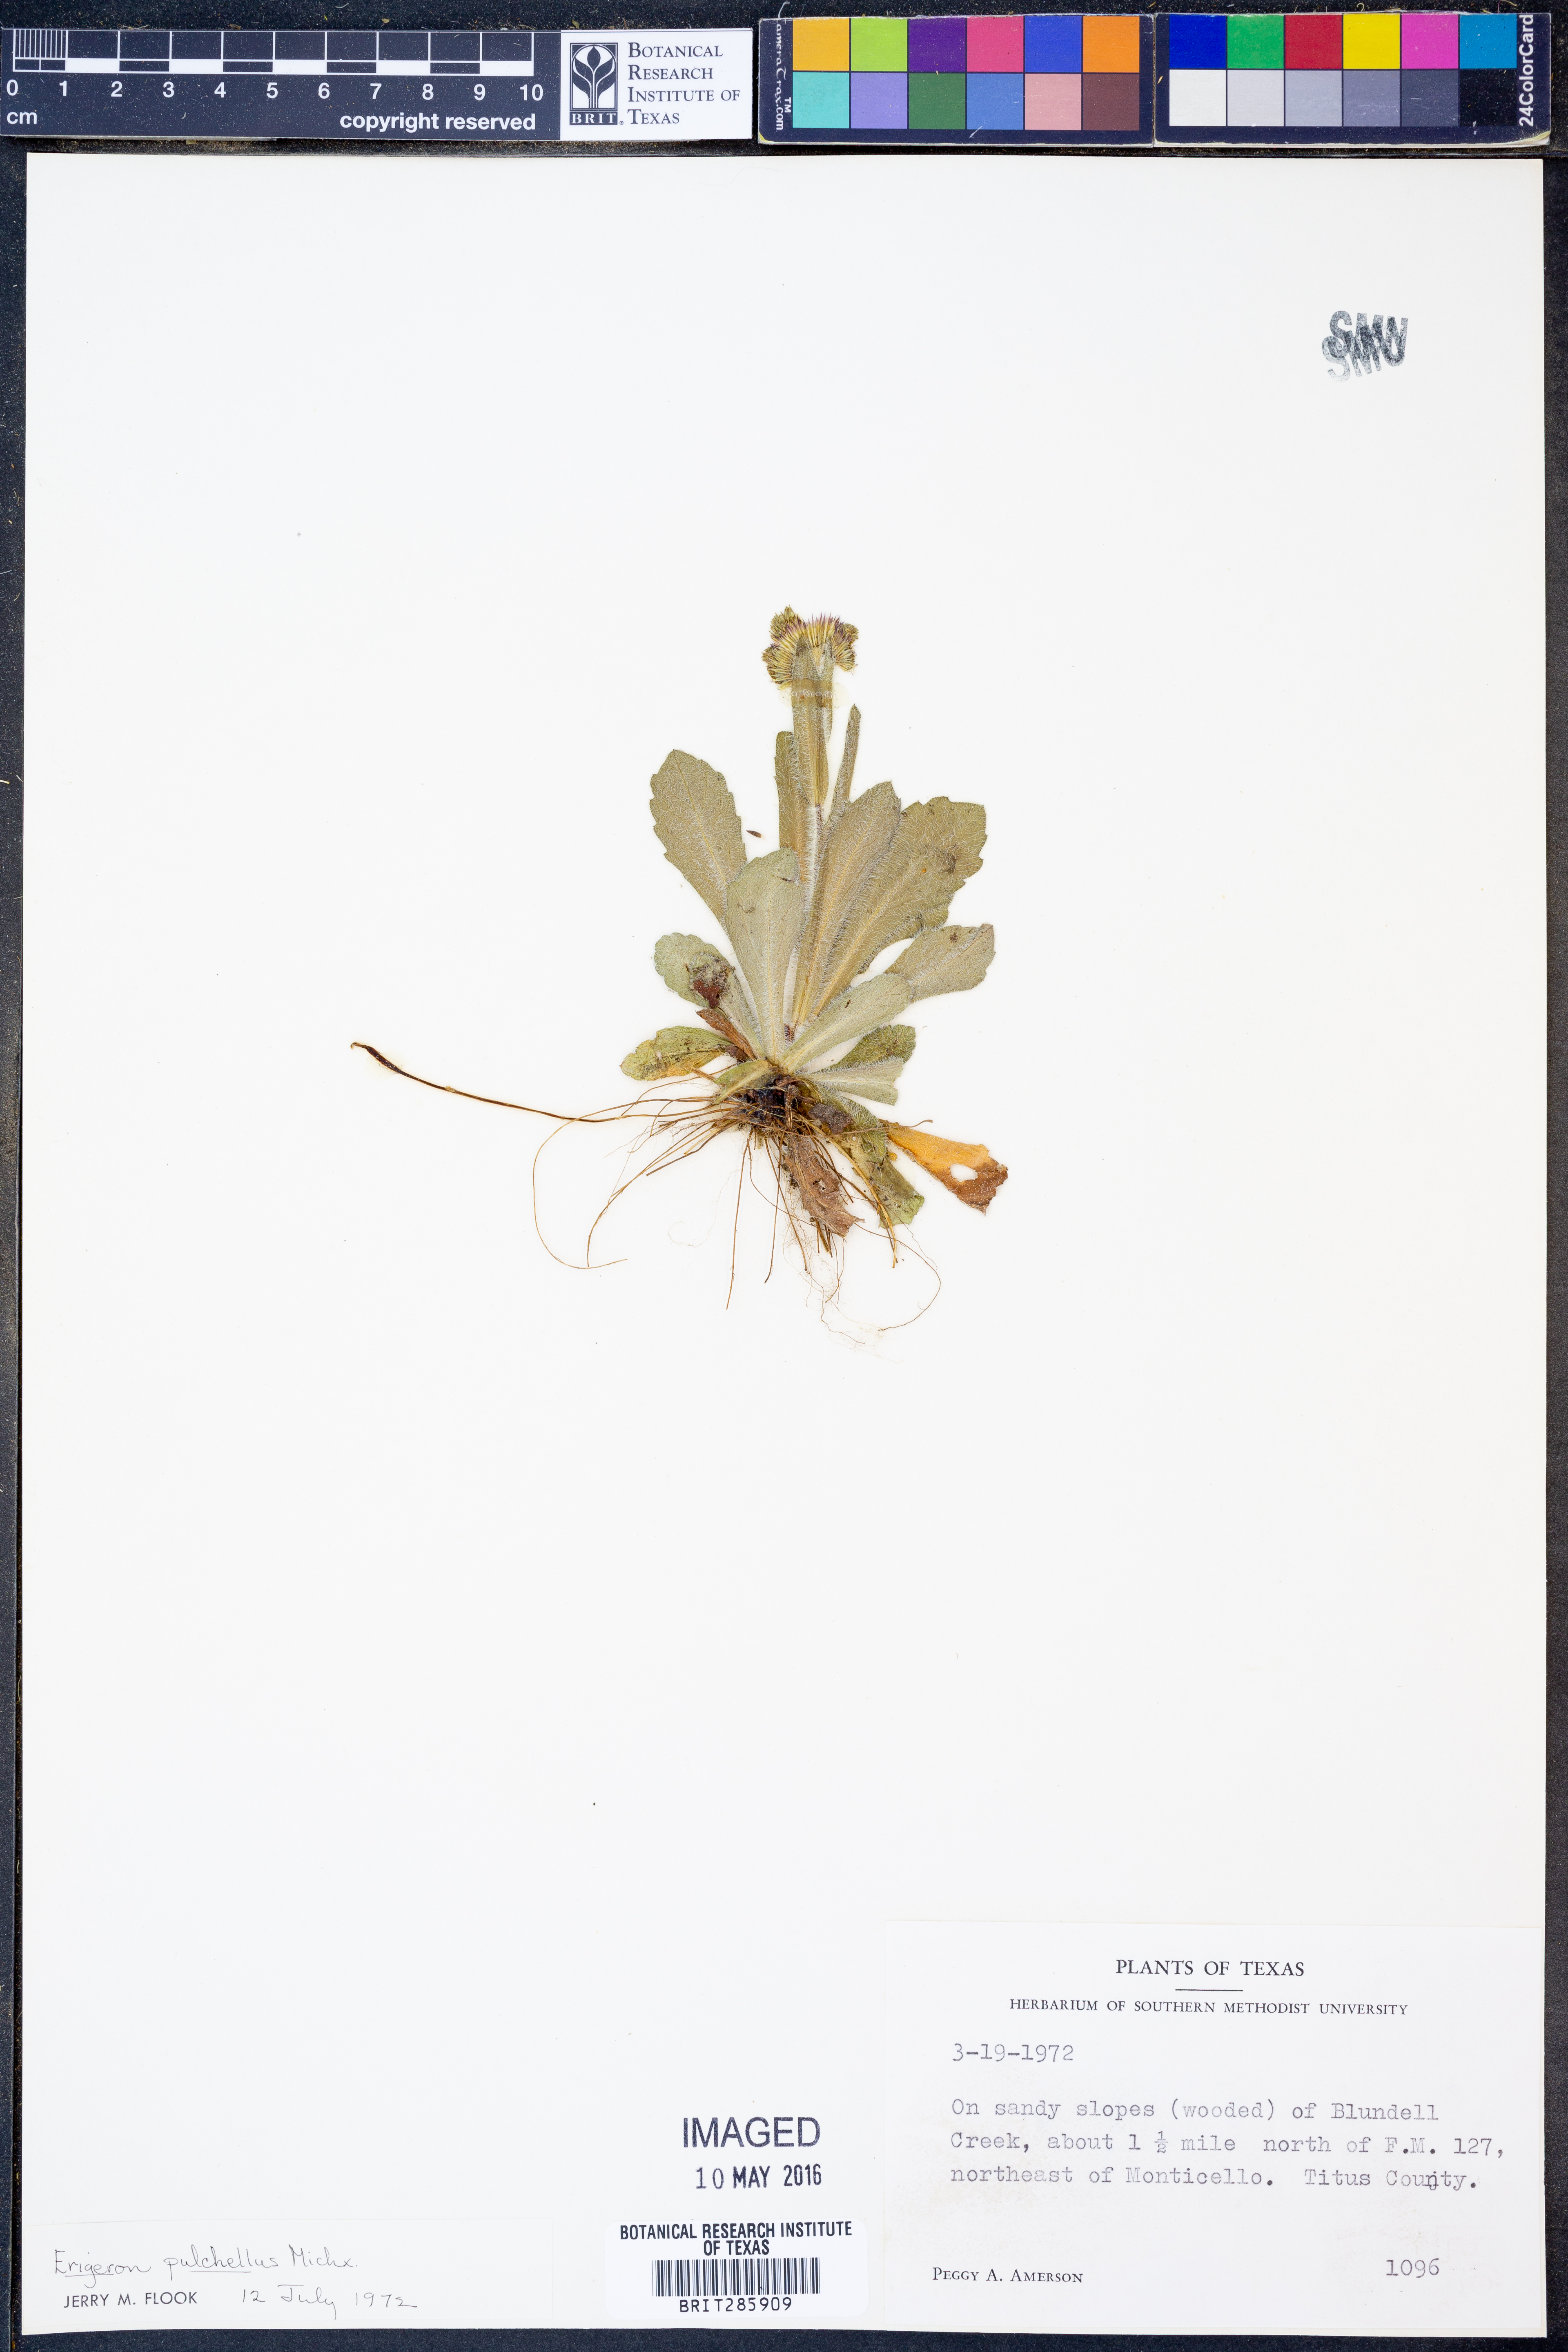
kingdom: Plantae
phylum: Tracheophyta
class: Magnoliopsida
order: Asterales
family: Asteraceae
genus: Erigeron
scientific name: Erigeron pulchellus
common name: Hairy fleabane
